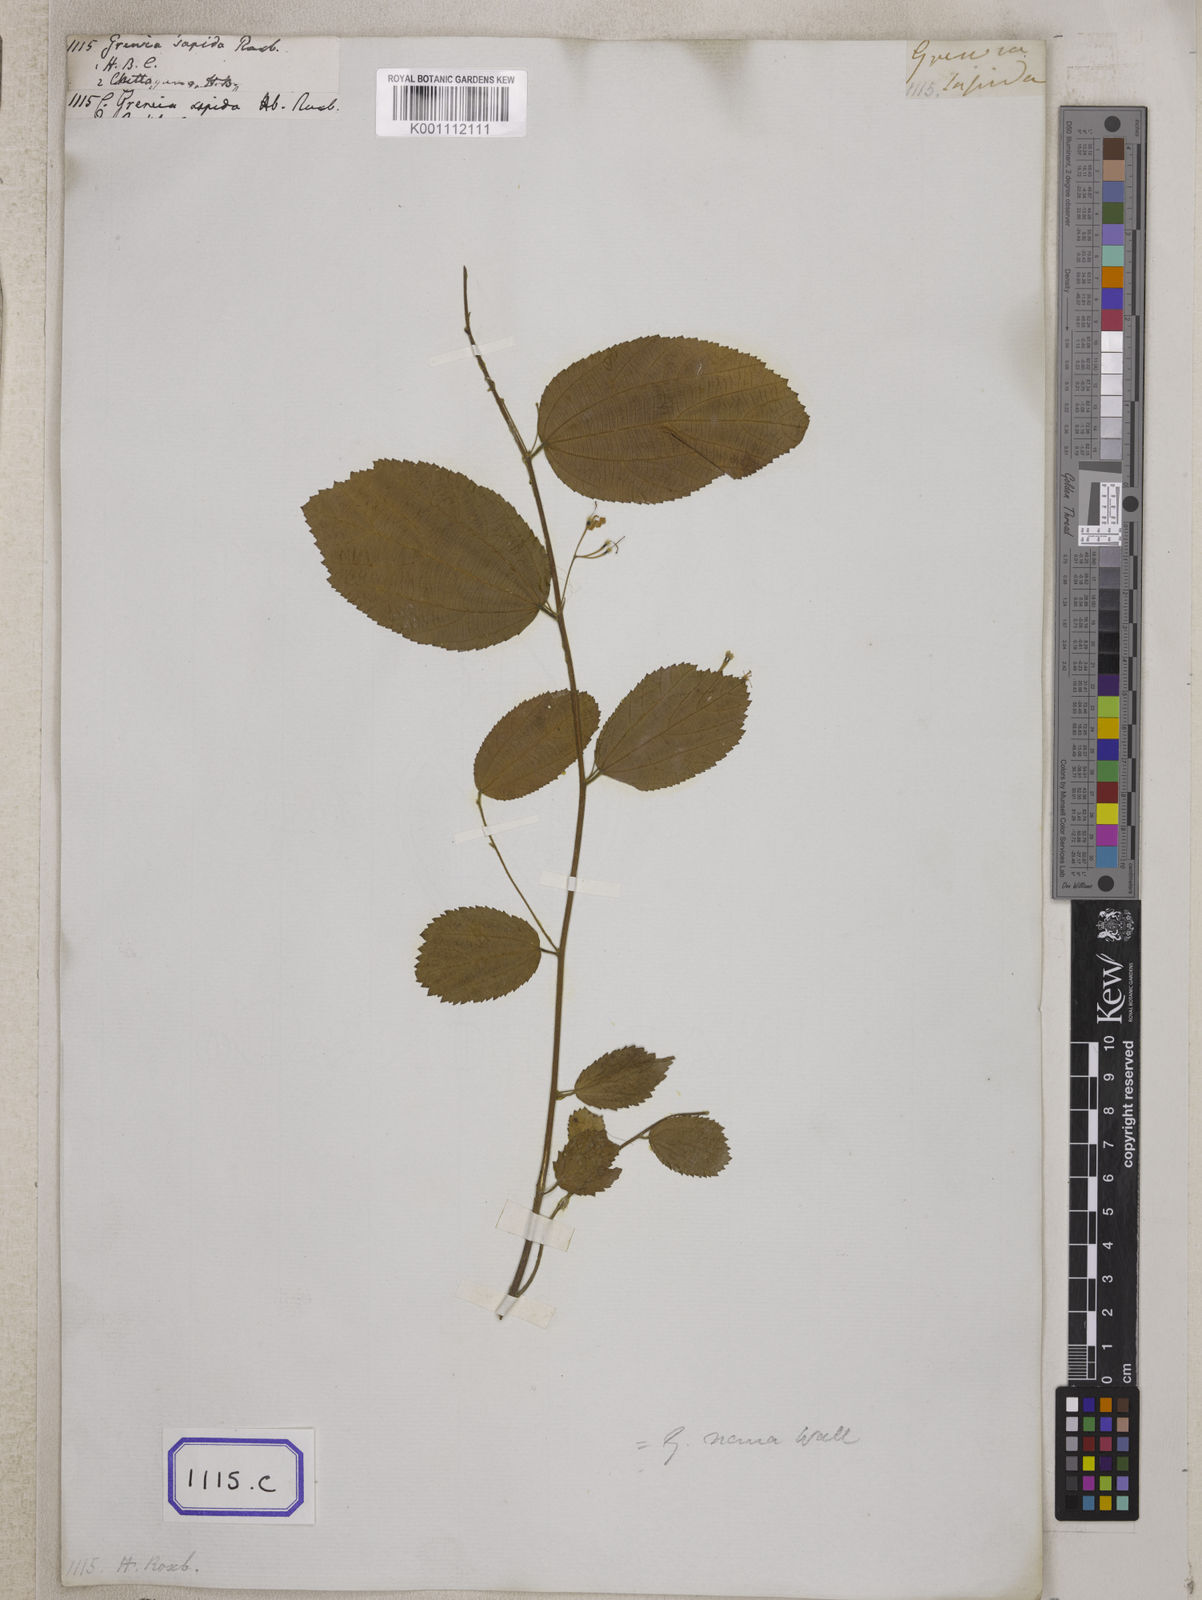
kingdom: Plantae
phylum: Tracheophyta
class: Magnoliopsida
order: Malvales
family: Malvaceae
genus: Grewia
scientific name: Grewia
